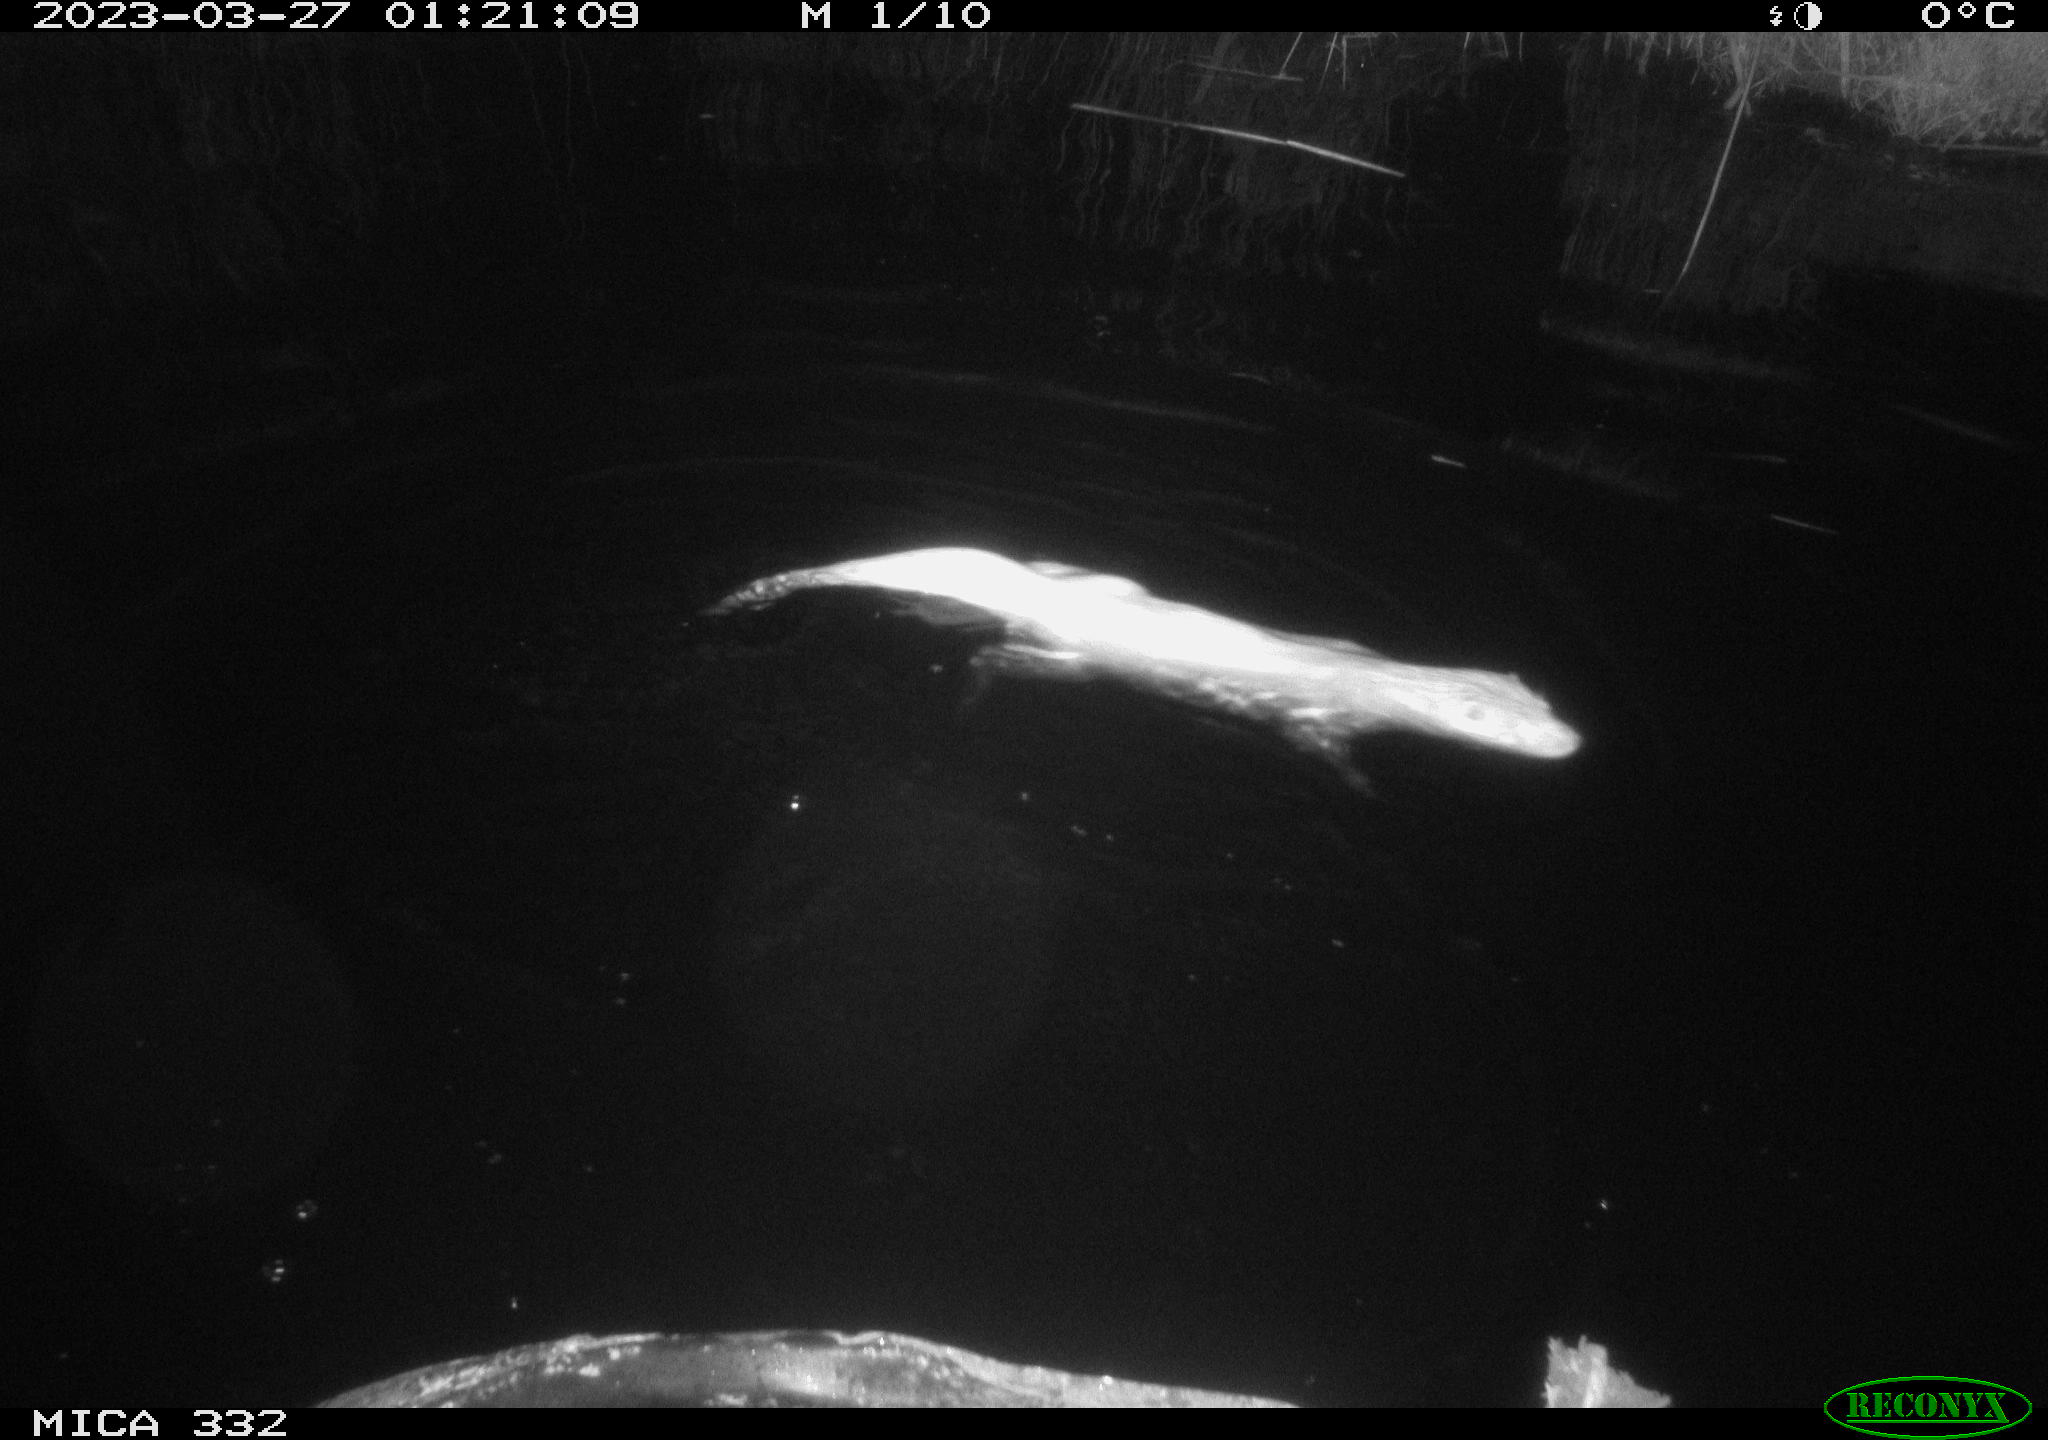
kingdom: Animalia
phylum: Chordata
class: Mammalia
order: Carnivora
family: Mustelidae
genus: Lutra
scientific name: Lutra lutra
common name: European otter
